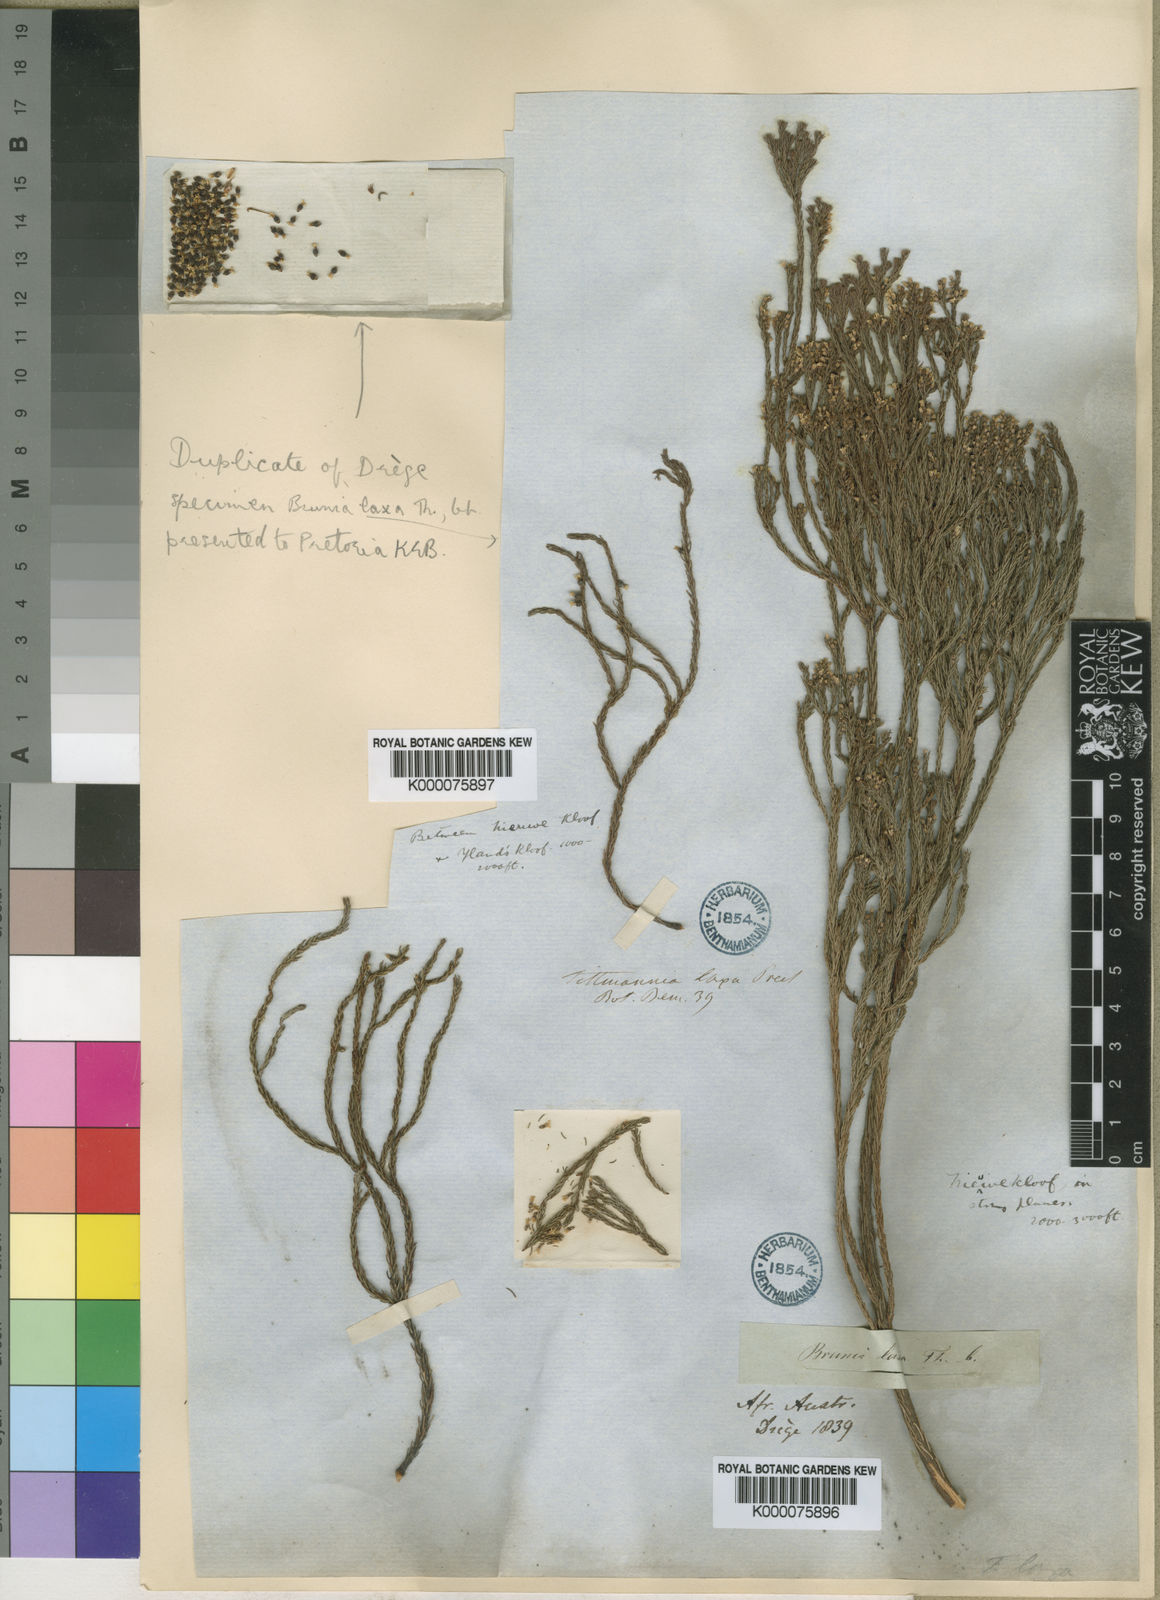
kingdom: Plantae
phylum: Tracheophyta
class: Magnoliopsida
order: Bruniales
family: Bruniaceae
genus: Audouinia
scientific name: Audouinia laxa
